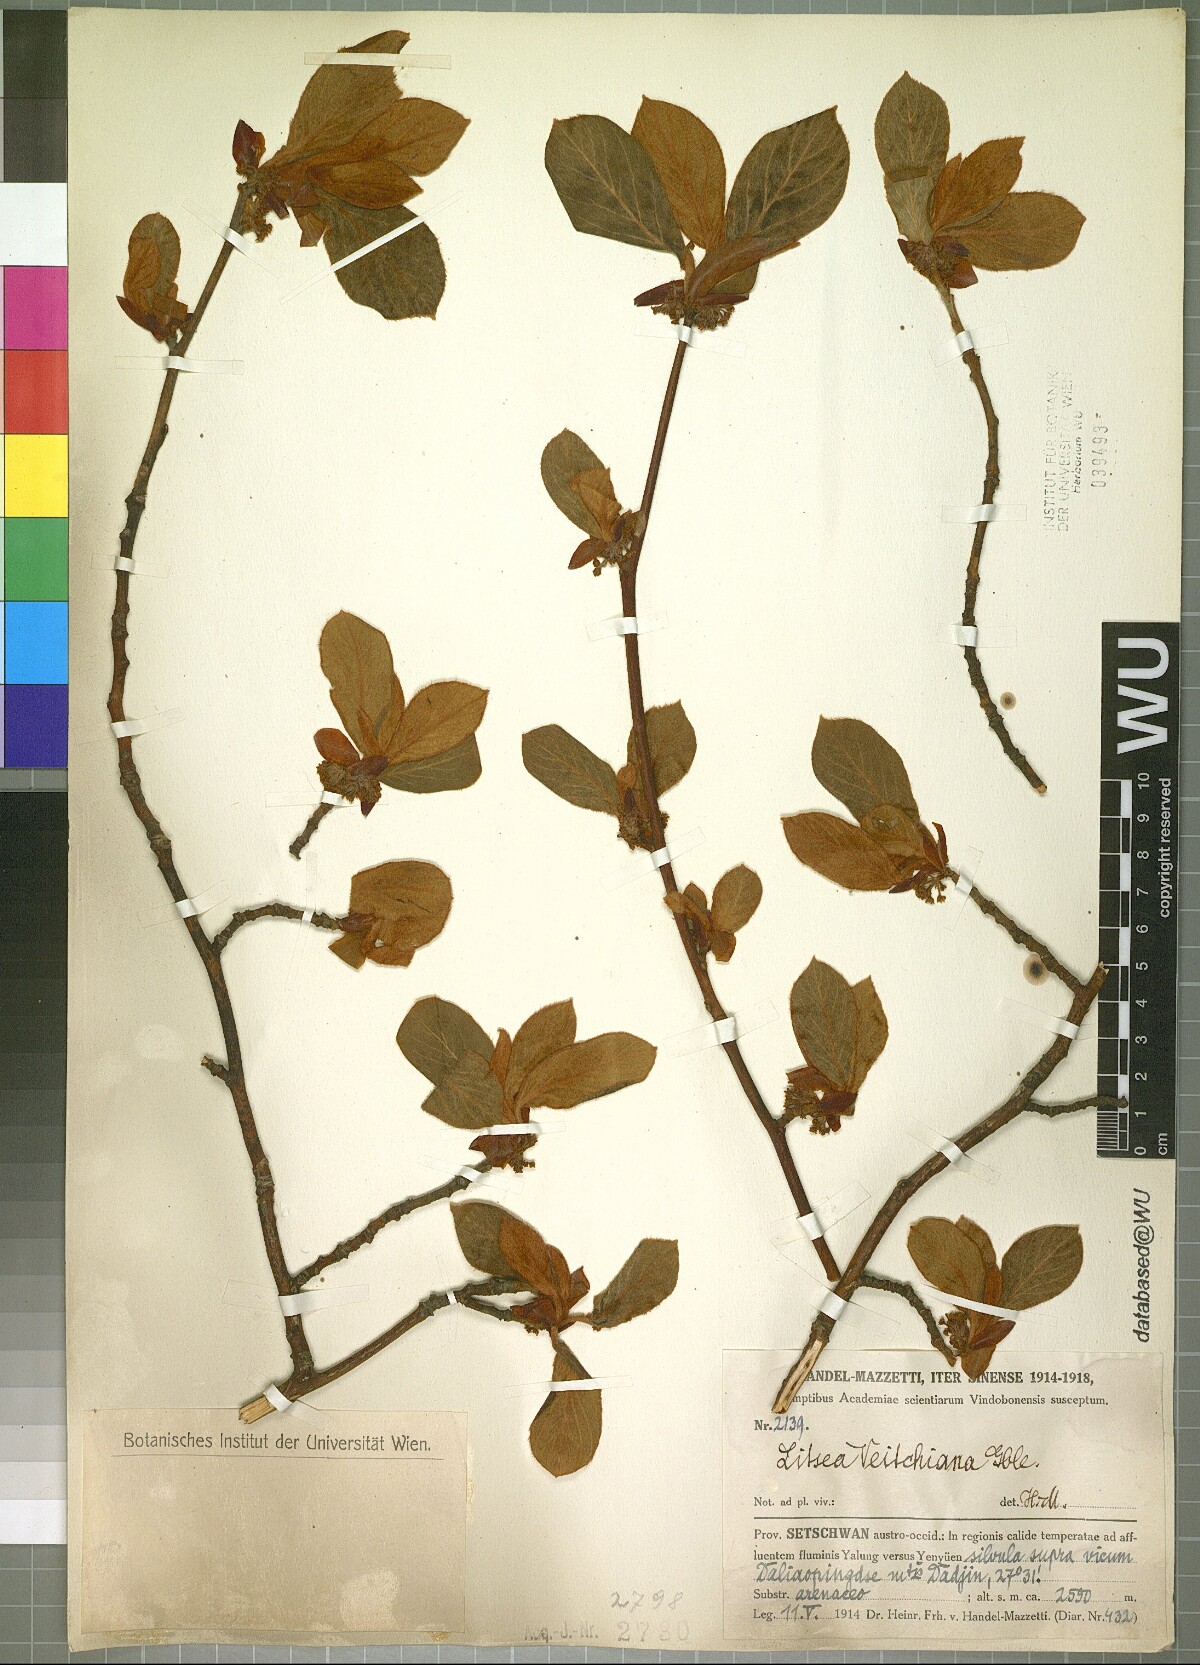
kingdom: Plantae
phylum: Tracheophyta
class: Magnoliopsida
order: Laurales
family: Lauraceae
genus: Litsea
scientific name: Litsea veitchiana
